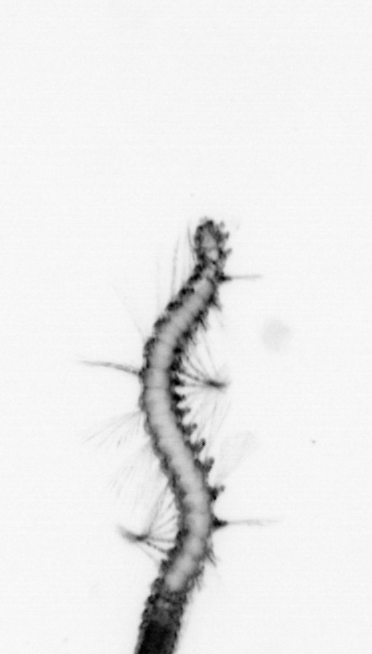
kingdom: Animalia
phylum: Annelida
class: Polychaeta
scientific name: Polychaeta
